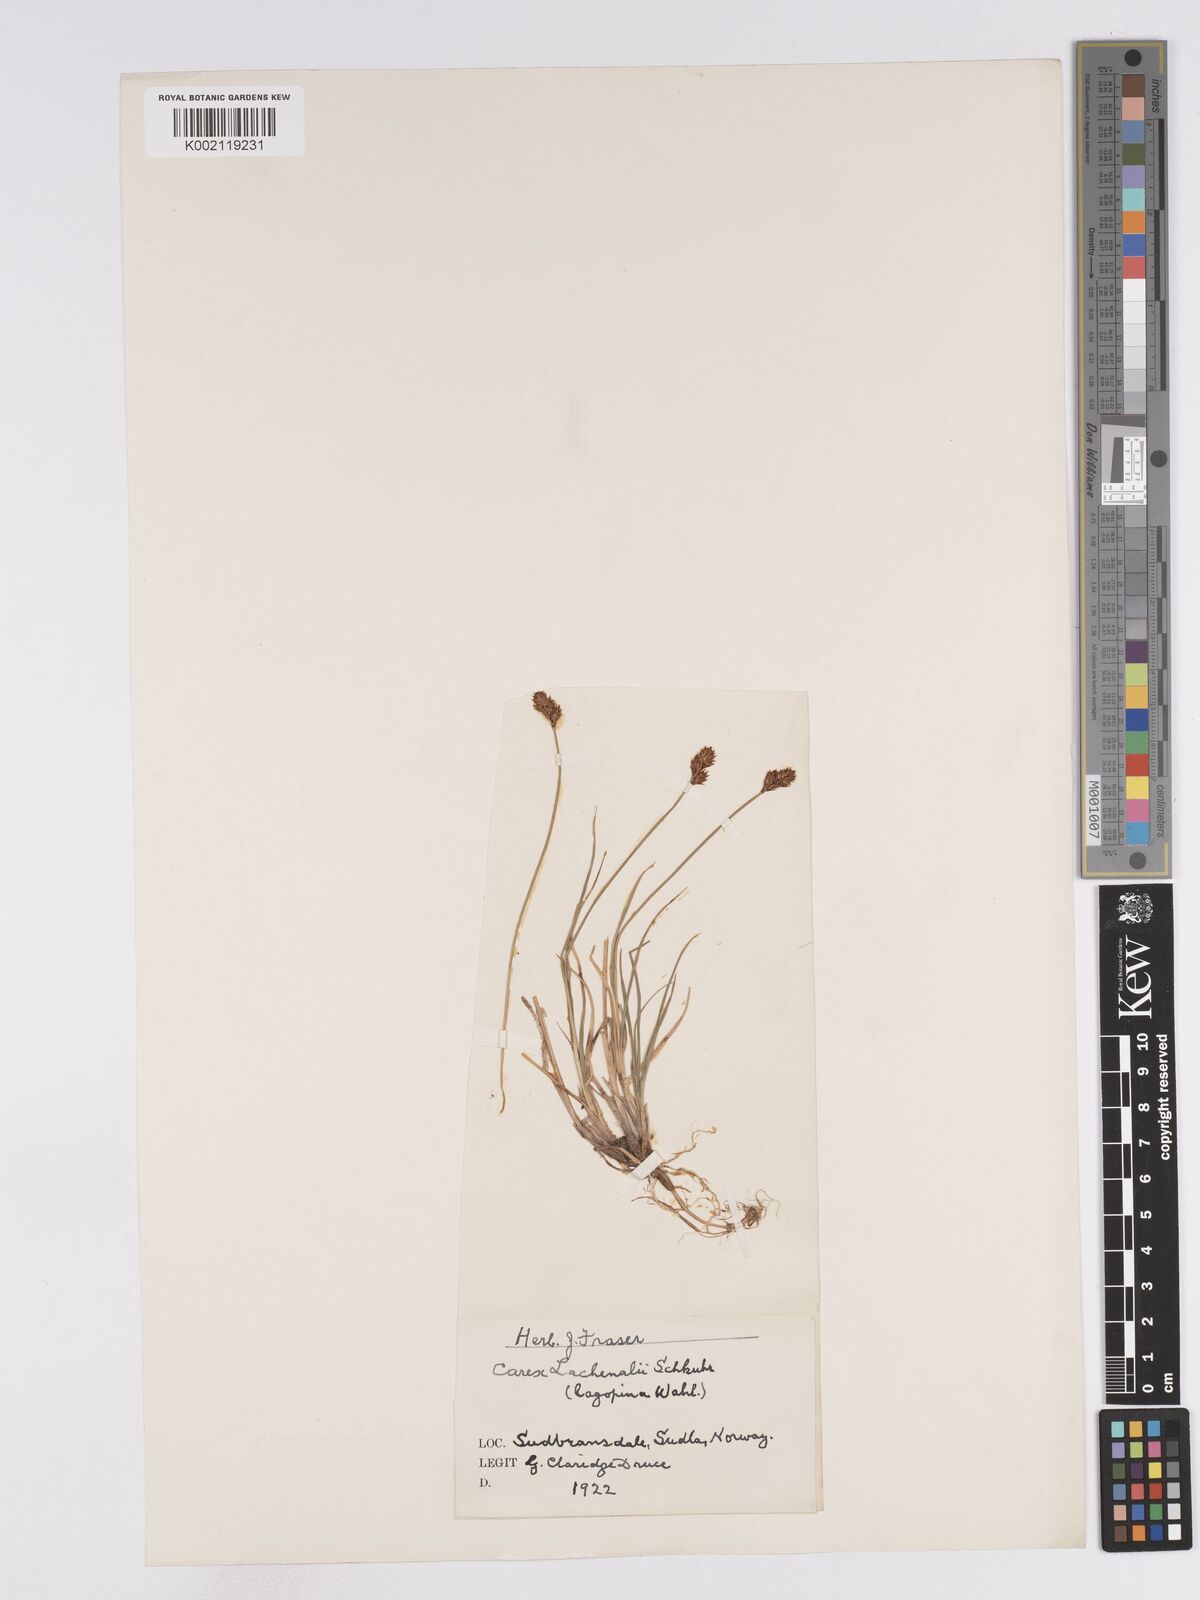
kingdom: Plantae
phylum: Tracheophyta
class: Liliopsida
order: Poales
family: Cyperaceae
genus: Carex
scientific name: Carex lachenalii
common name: Hare's-foot sedge
